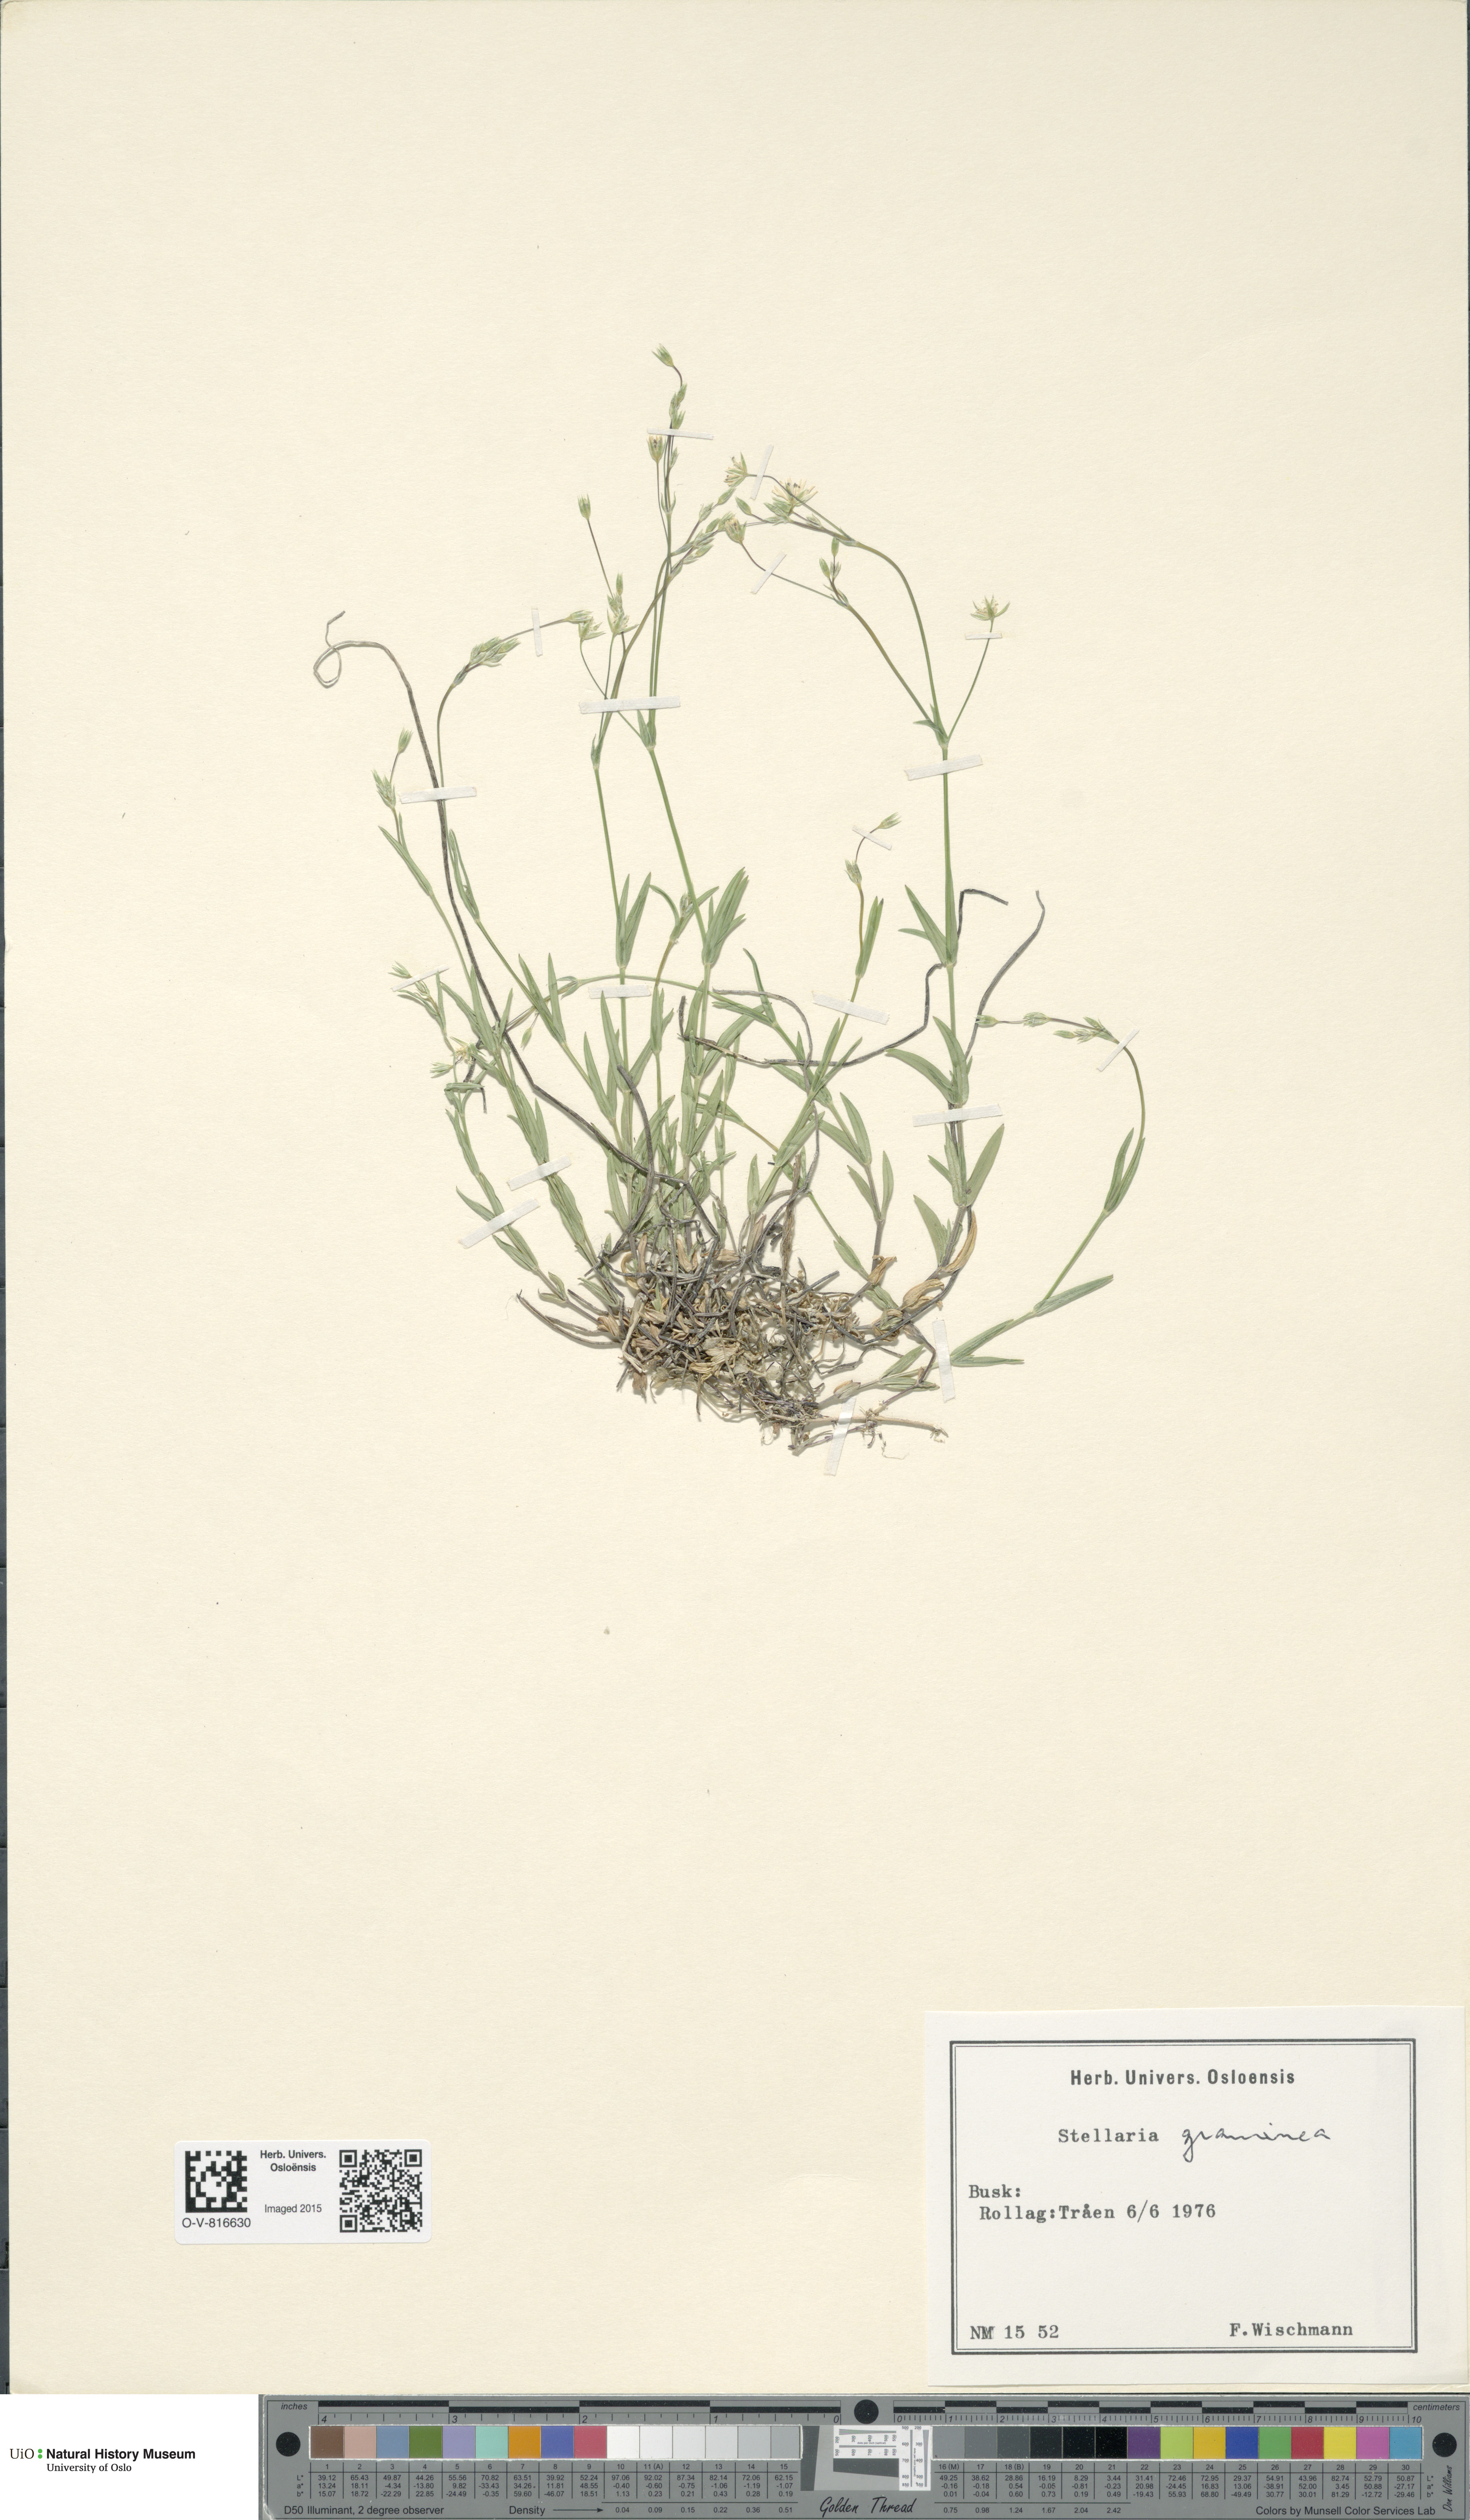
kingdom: Plantae
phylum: Tracheophyta
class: Magnoliopsida
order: Caryophyllales
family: Caryophyllaceae
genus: Stellaria
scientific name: Stellaria graminea
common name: Grass-like starwort
